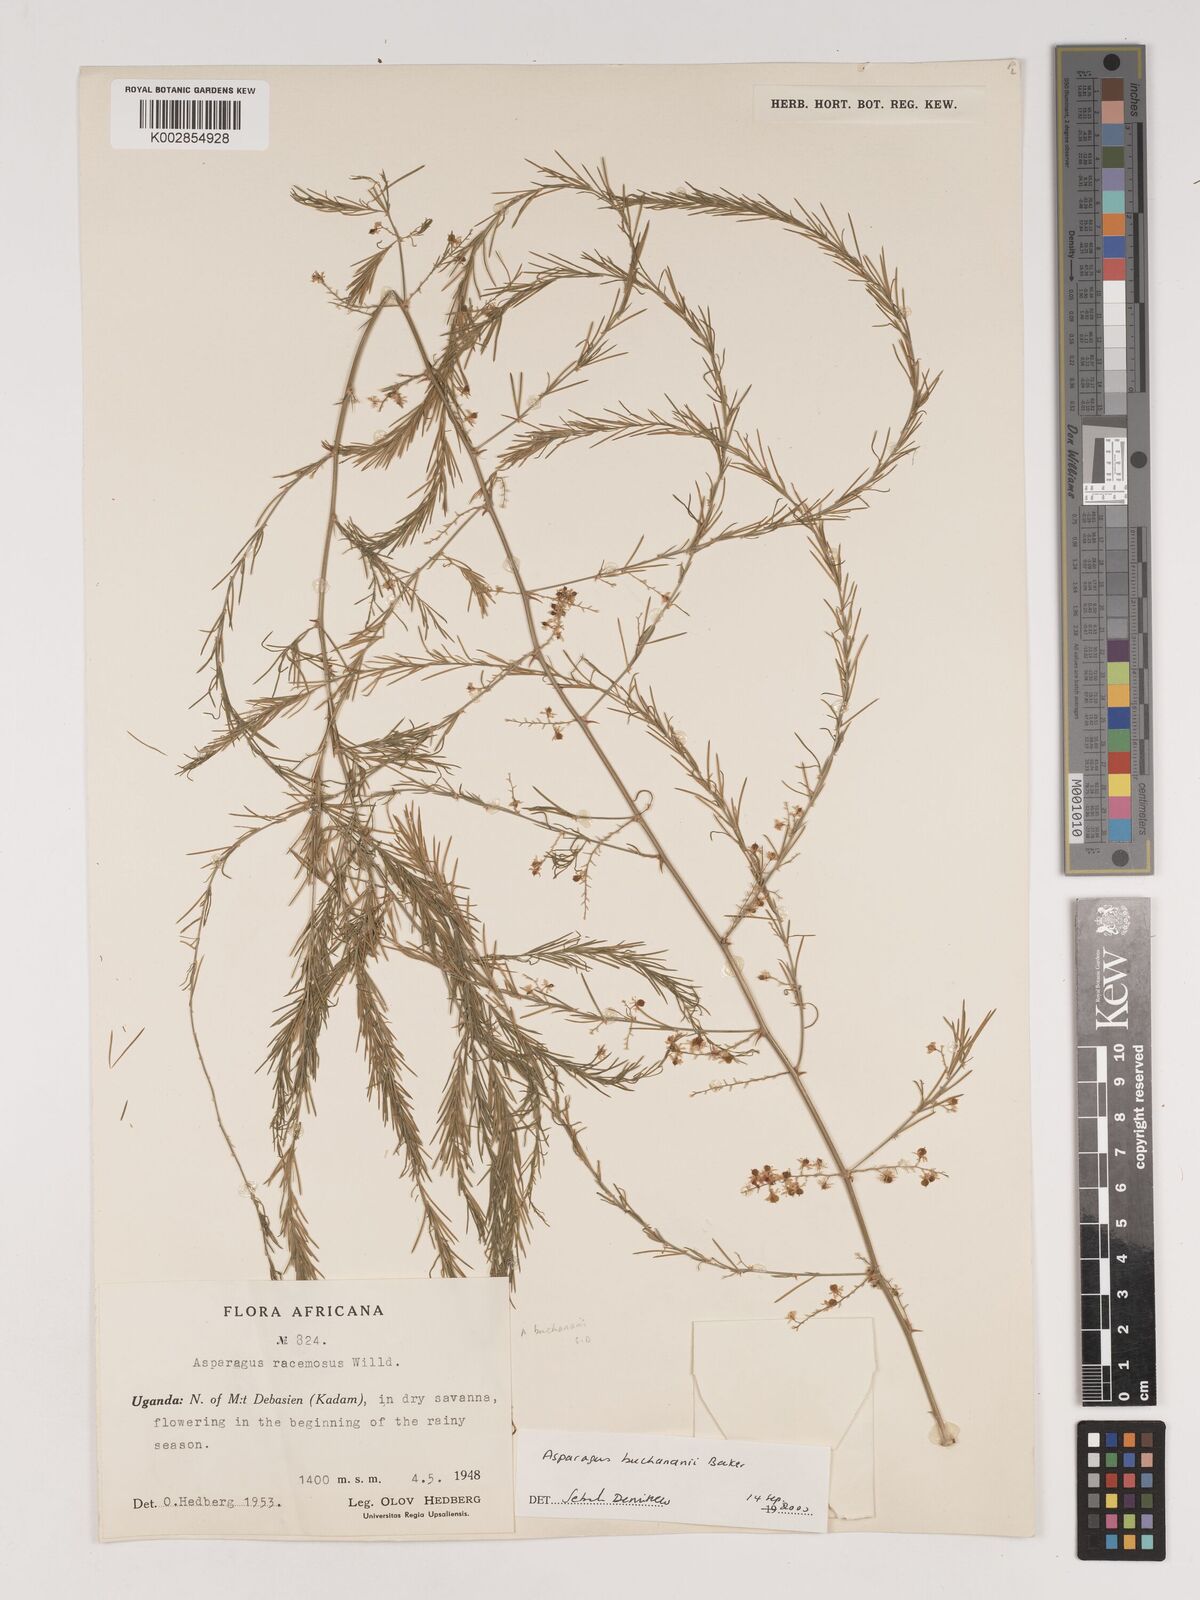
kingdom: Plantae
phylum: Tracheophyta
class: Liliopsida
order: Asparagales
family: Asparagaceae
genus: Asparagus
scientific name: Asparagus buchananii
